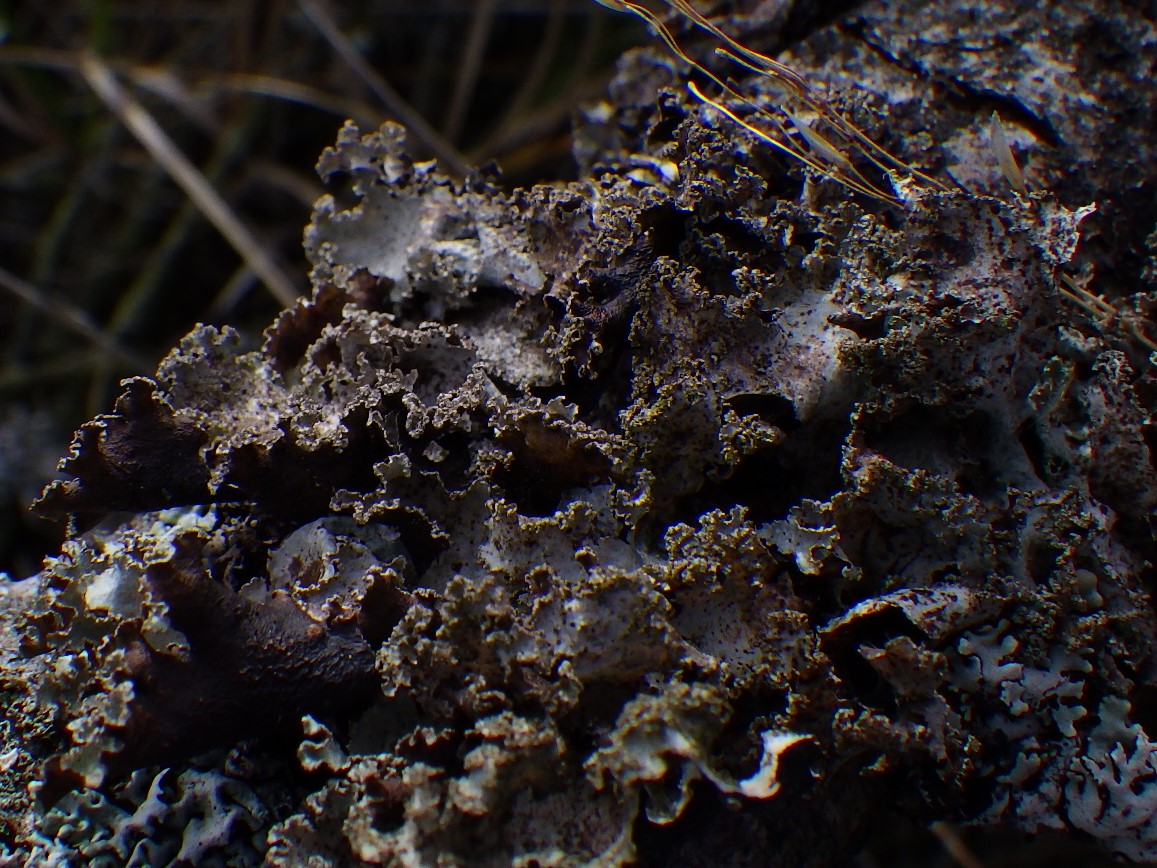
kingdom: Fungi
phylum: Ascomycota
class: Lecanoromycetes
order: Lecanorales
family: Parmeliaceae
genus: Platismatia
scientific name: Platismatia glauca
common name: blågrå papirlav
